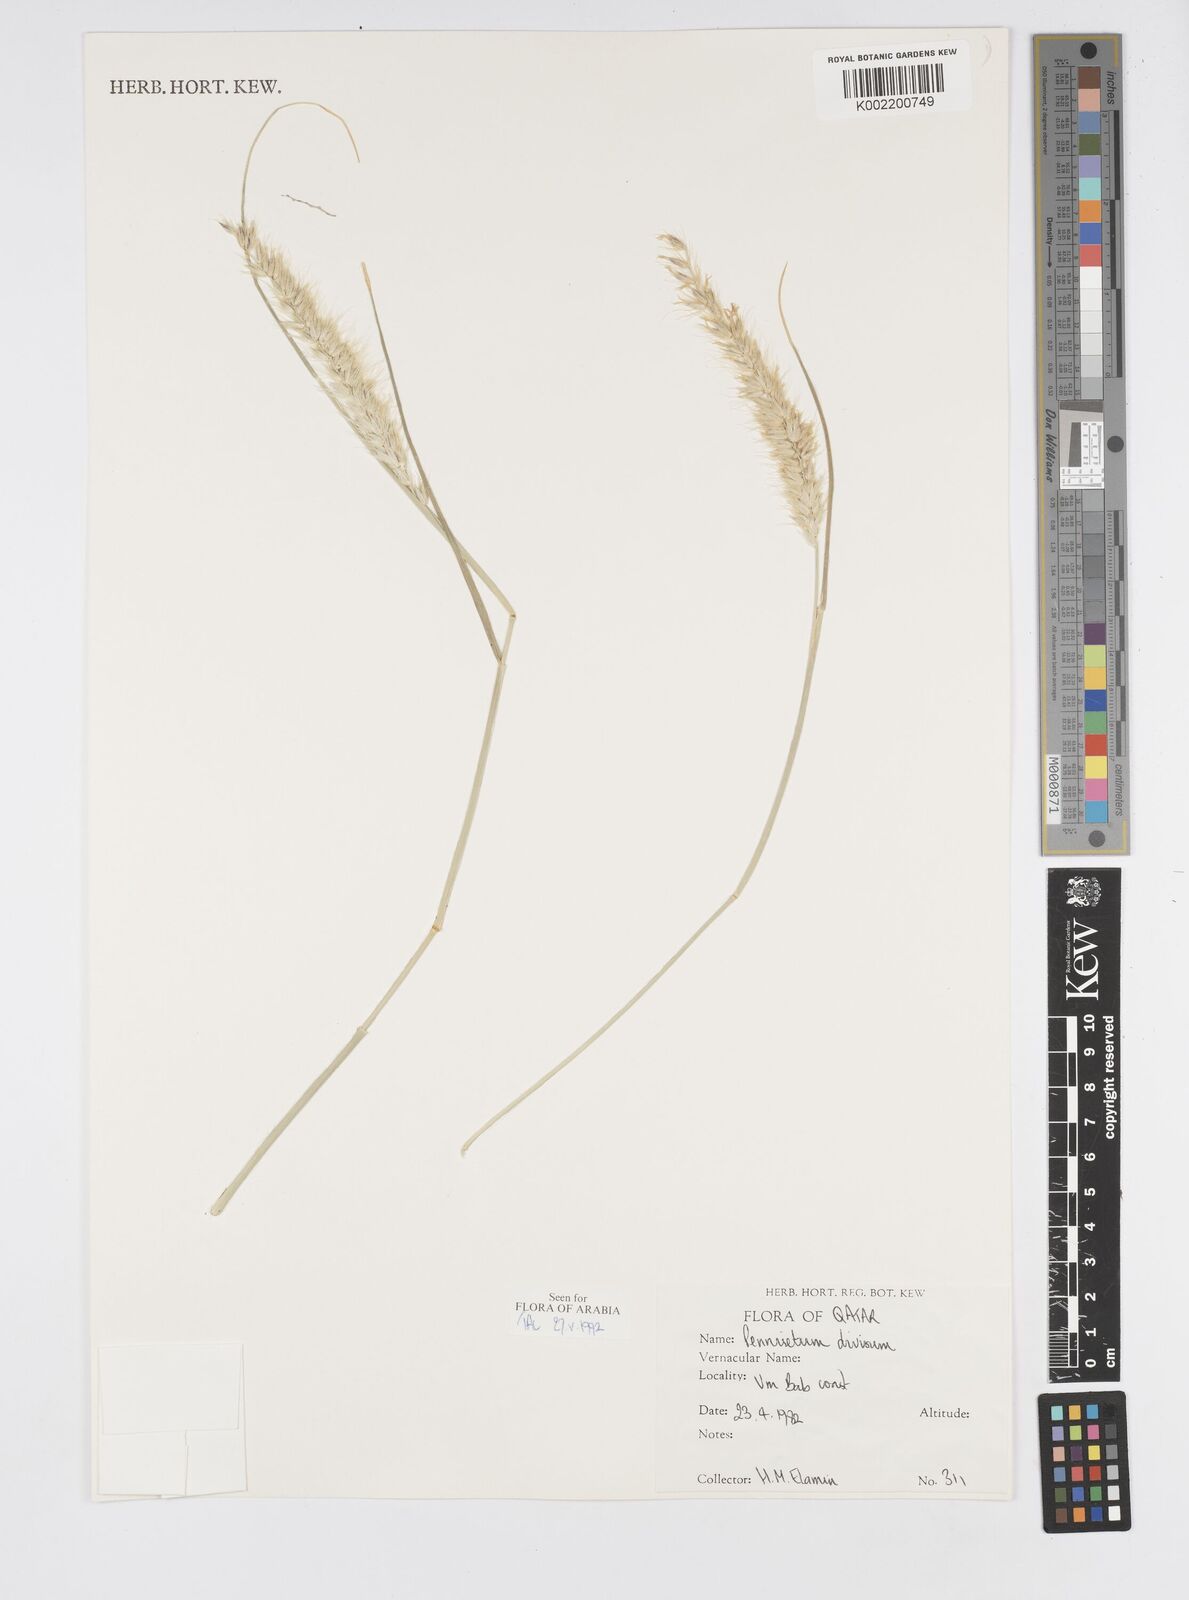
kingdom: Plantae
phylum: Tracheophyta
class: Liliopsida
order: Poales
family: Poaceae
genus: Cenchrus
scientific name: Cenchrus divisus
